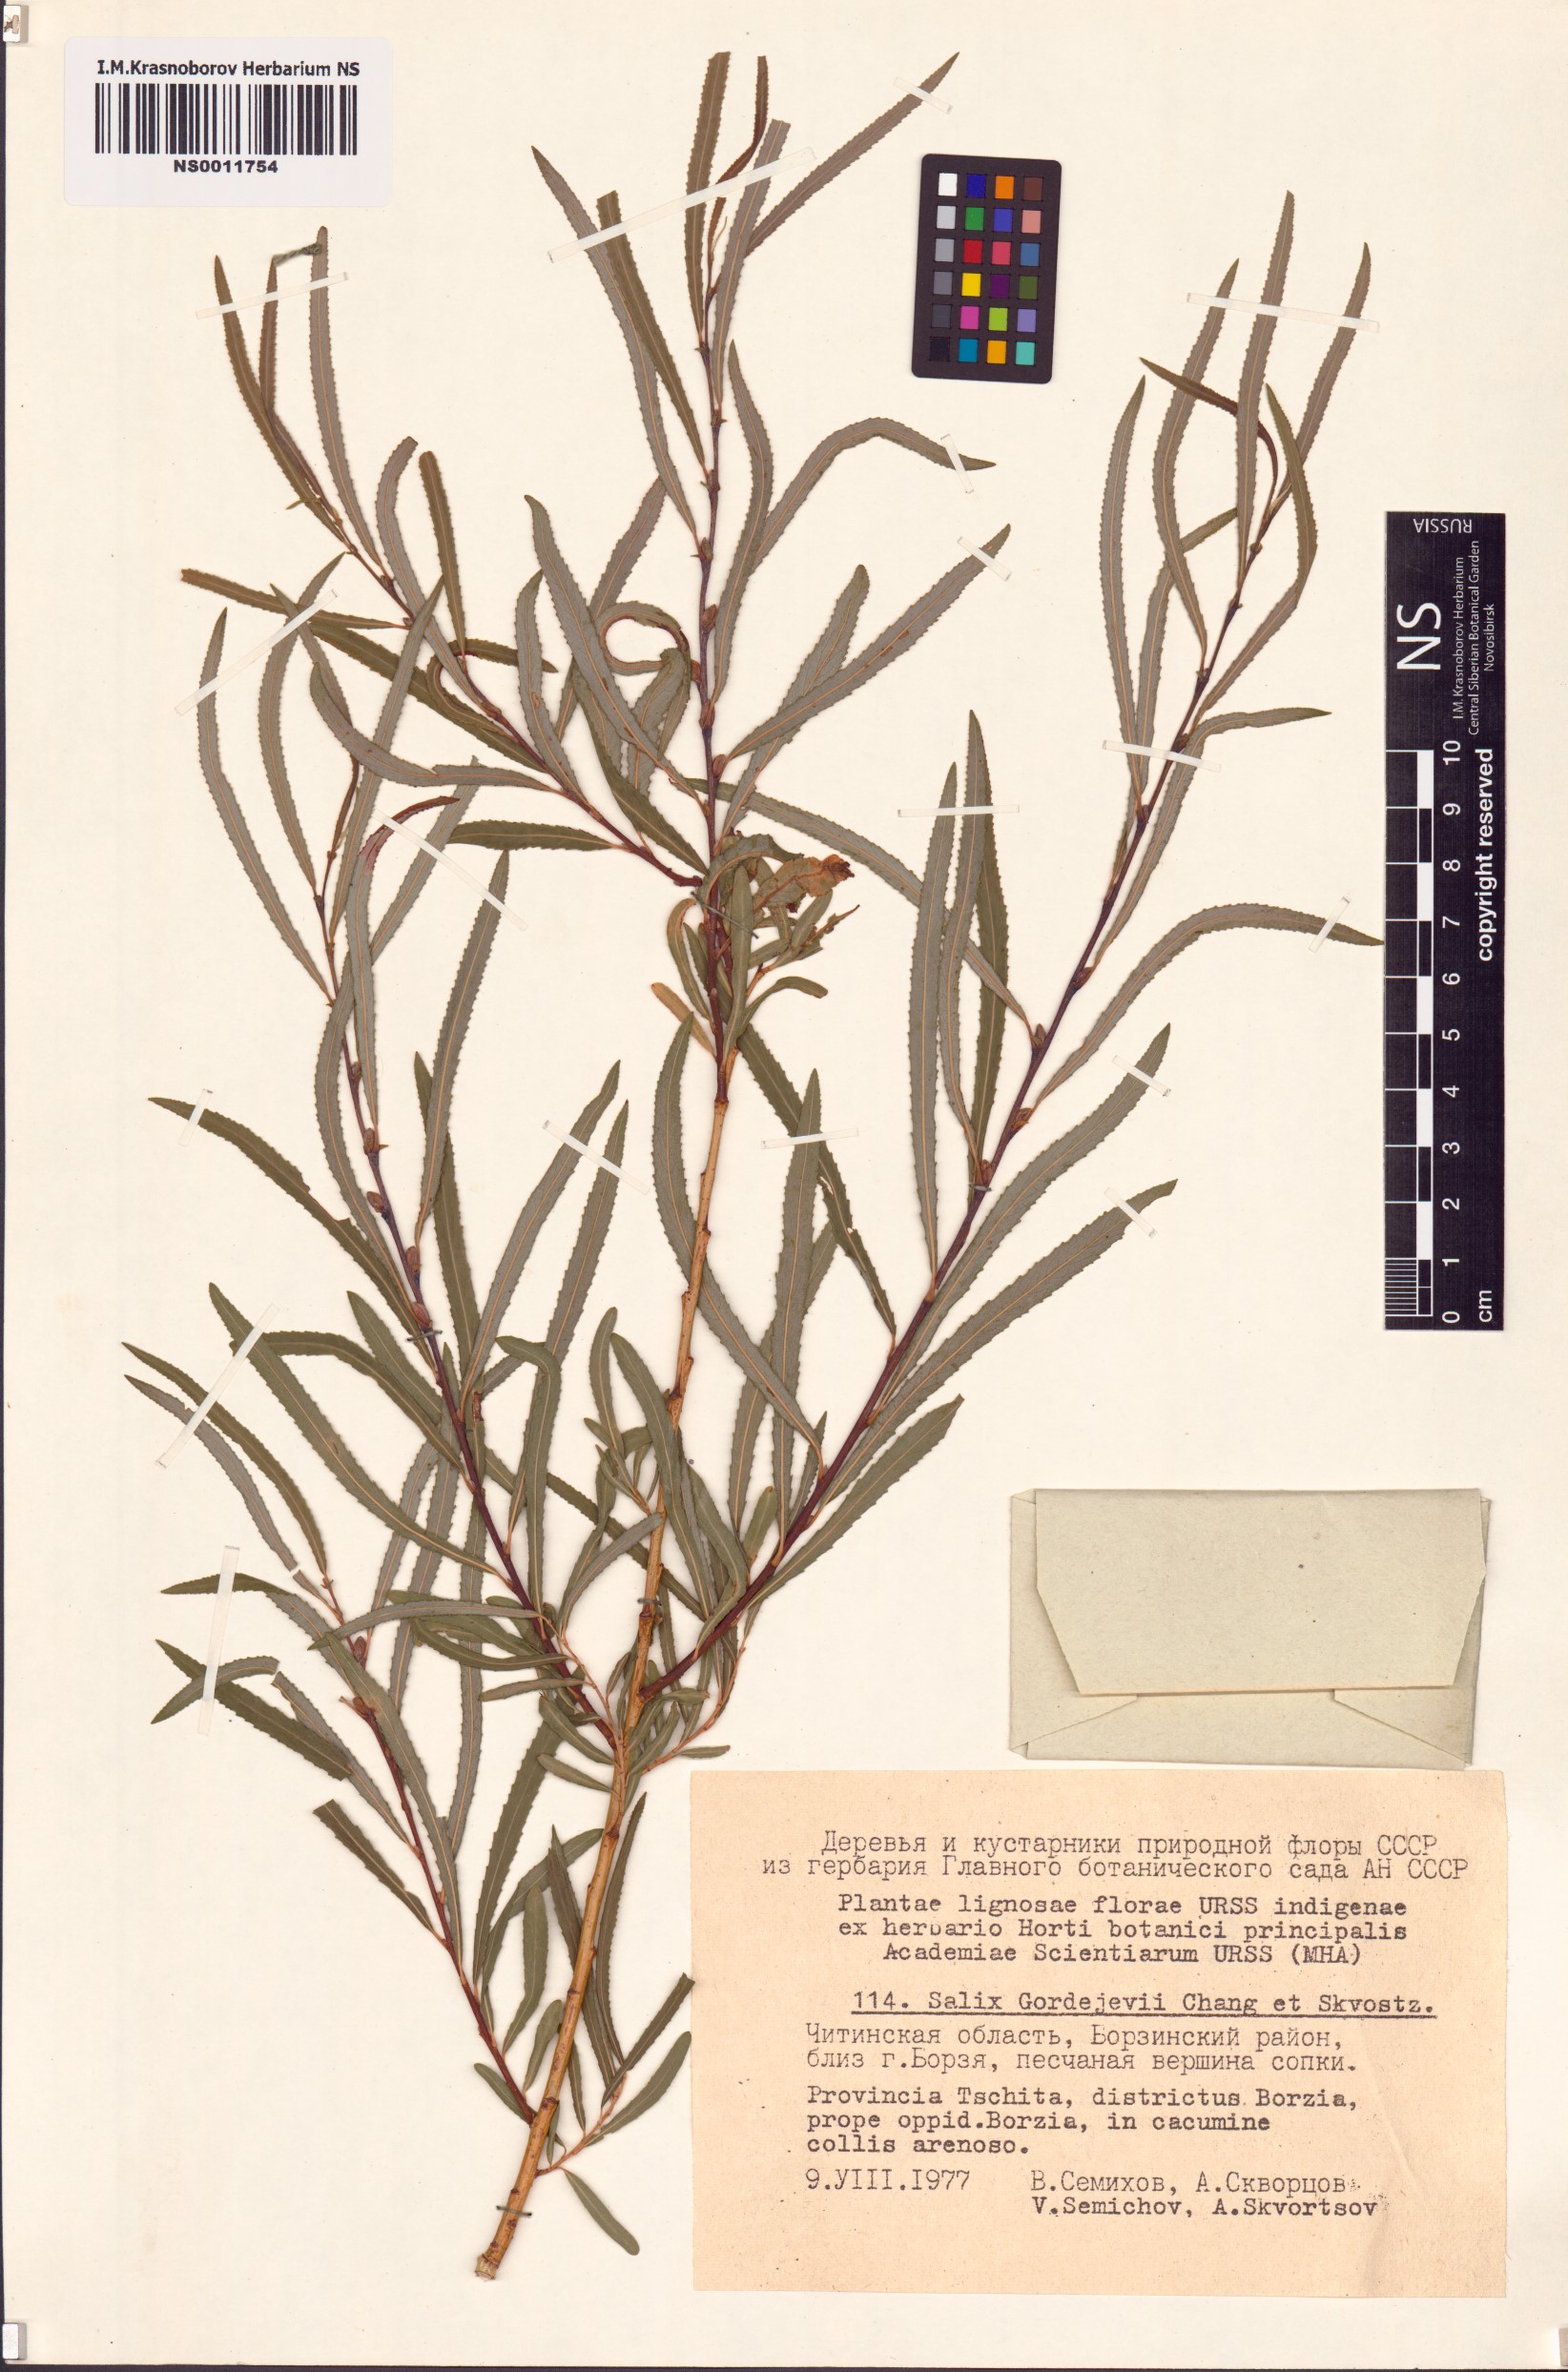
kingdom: Plantae
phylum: Tracheophyta
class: Magnoliopsida
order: Malpighiales
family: Salicaceae
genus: Salix
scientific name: Salix gordejevii
